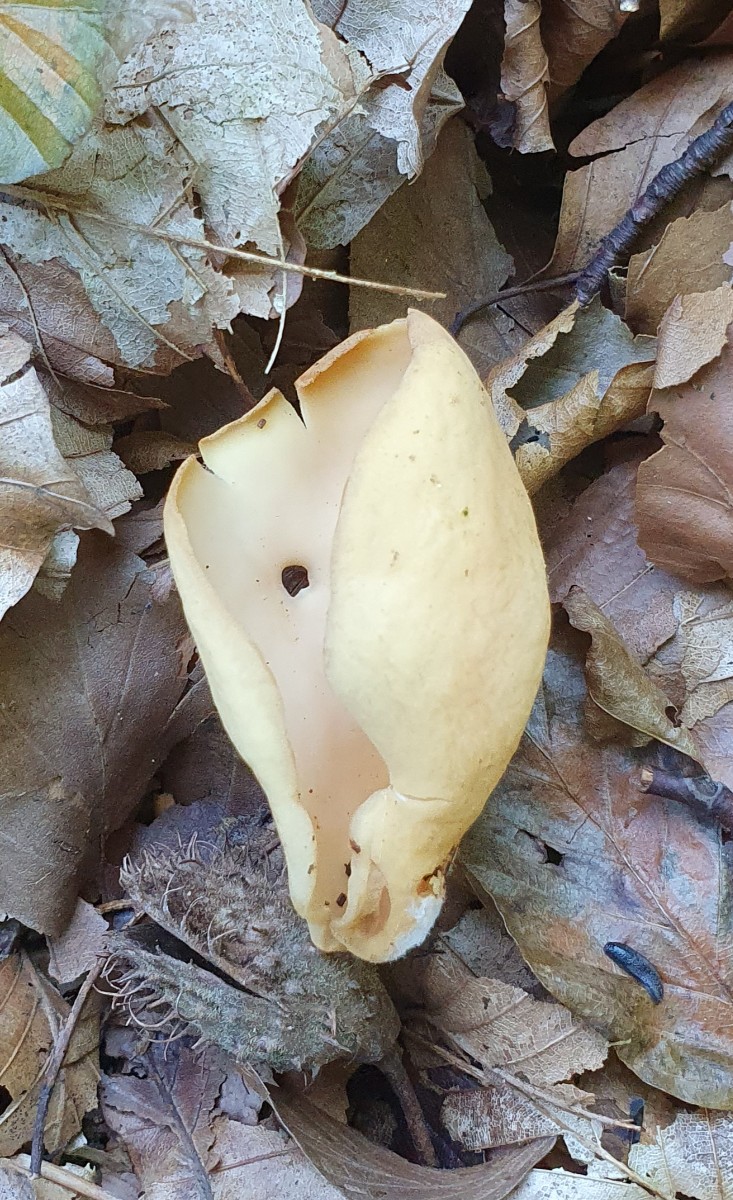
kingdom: Fungi
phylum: Ascomycota
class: Pezizomycetes
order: Pezizales
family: Otideaceae
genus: Otidea
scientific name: Otidea onotica
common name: æsel-ørebæger
